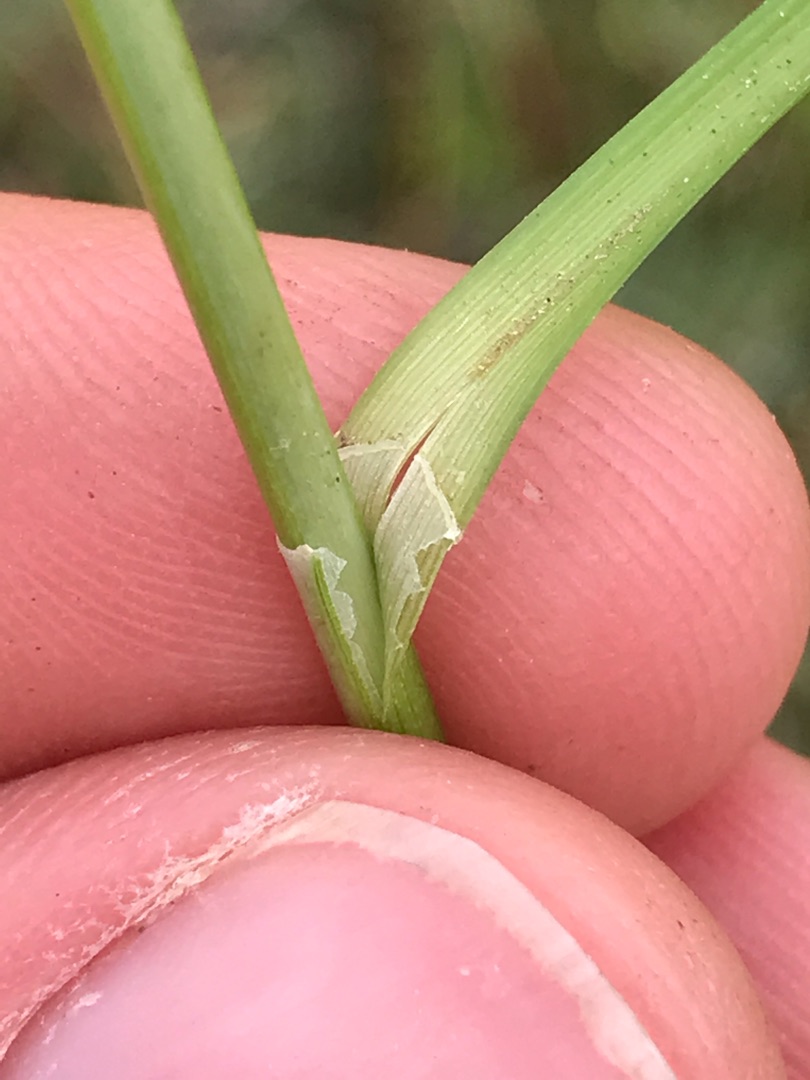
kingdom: Plantae
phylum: Tracheophyta
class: Liliopsida
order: Poales
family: Cyperaceae
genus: Carex
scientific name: Carex divulsa
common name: Mellembrudt star
